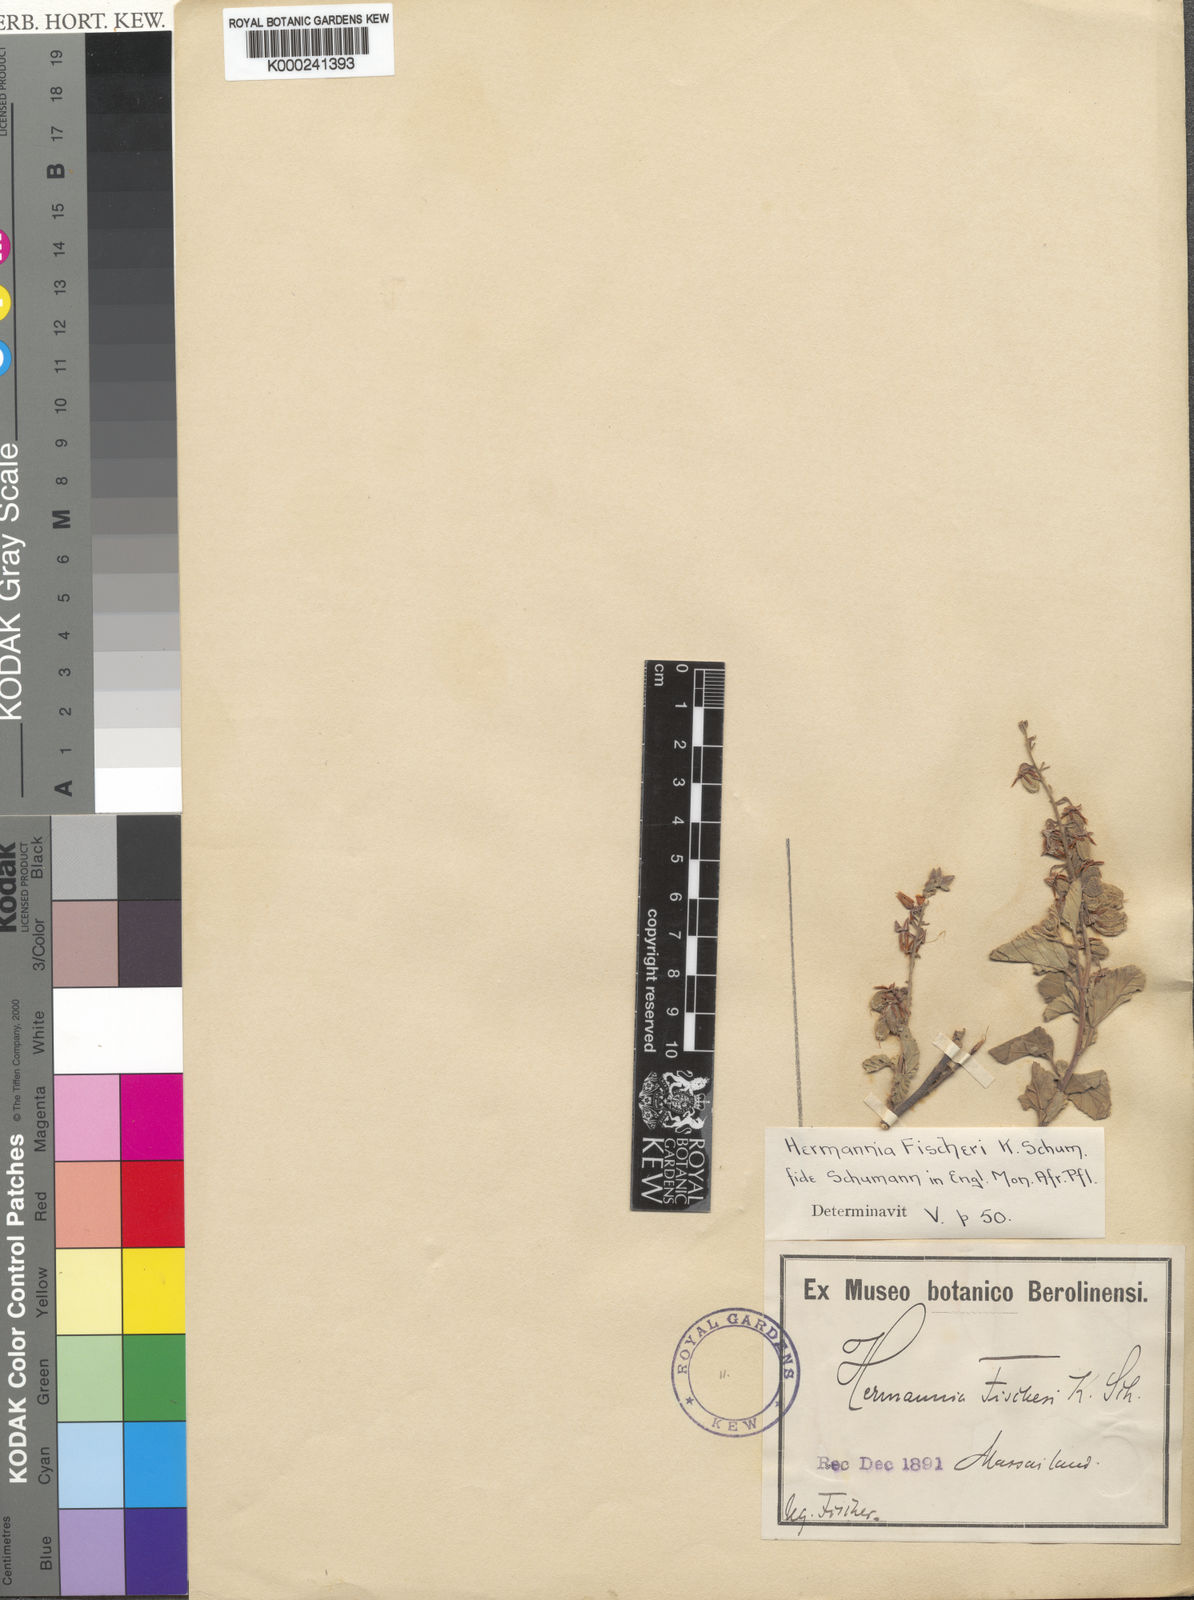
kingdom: Plantae
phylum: Tracheophyta
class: Magnoliopsida
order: Malvales
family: Malvaceae
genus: Hermannia
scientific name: Hermannia fischeri
